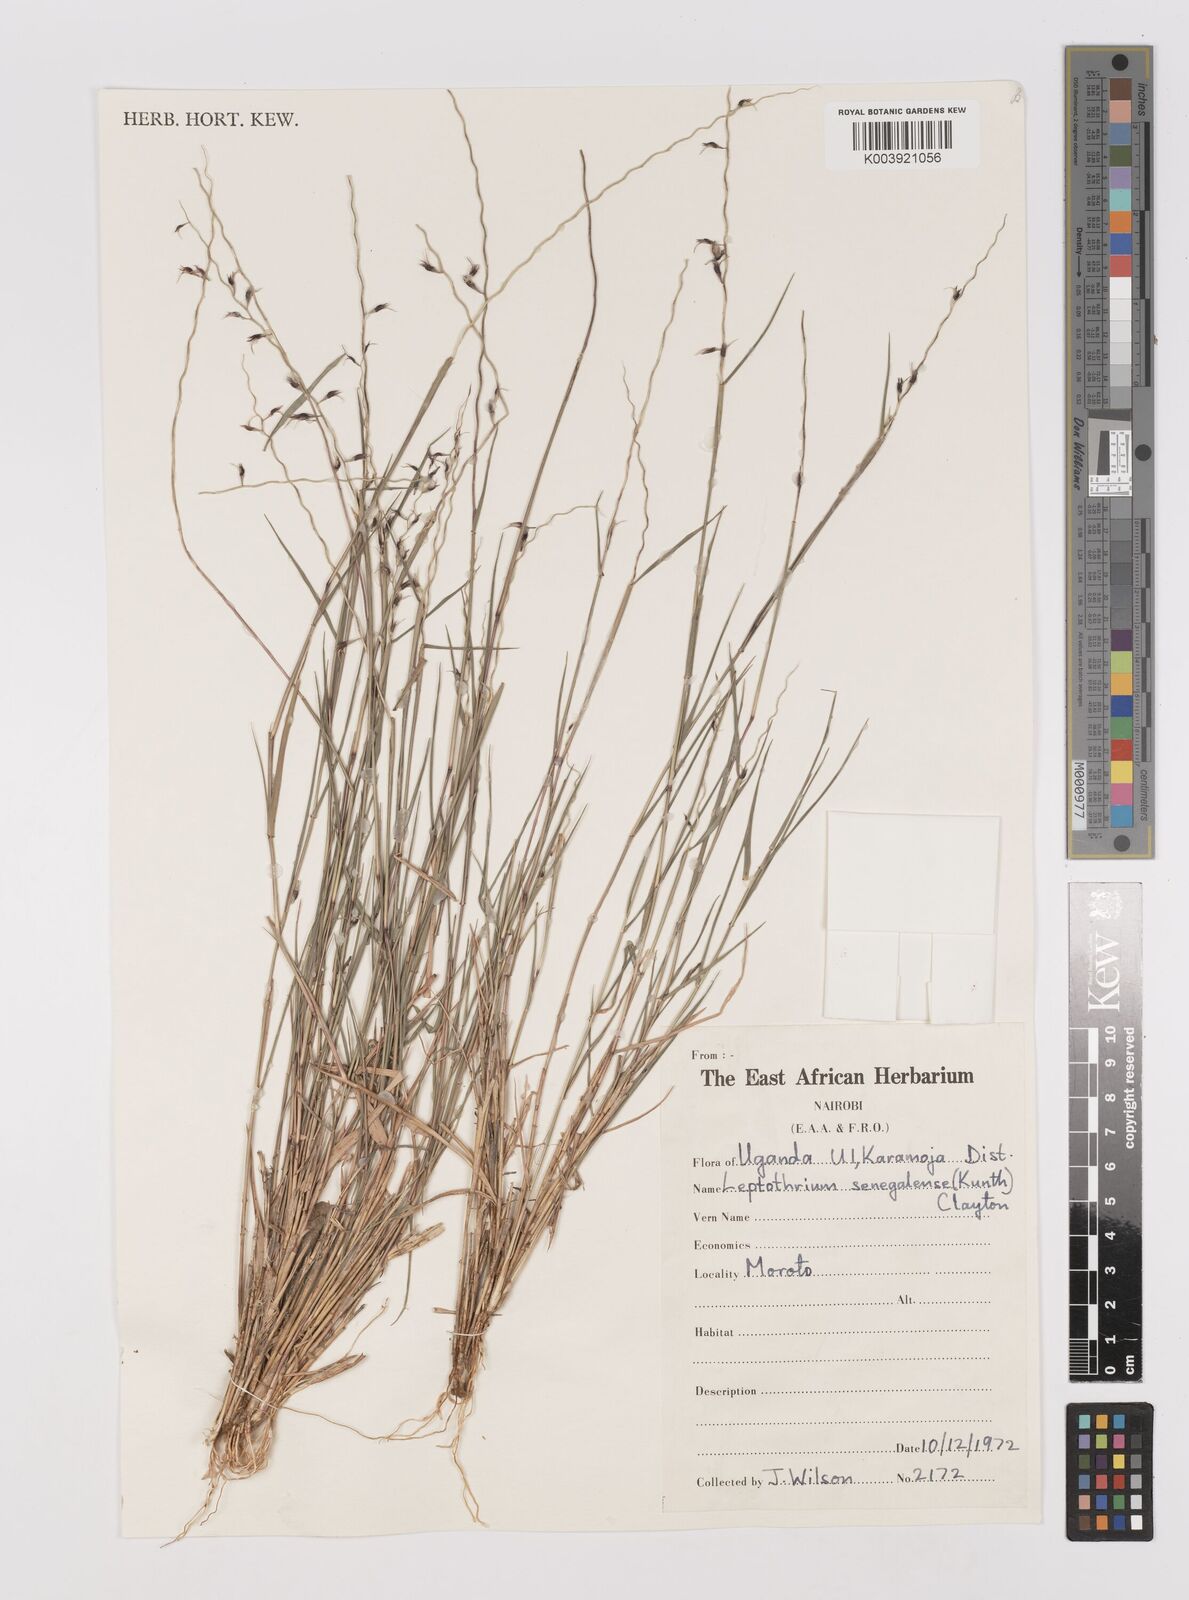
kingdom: Plantae
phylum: Tracheophyta
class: Liliopsida
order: Poales
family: Poaceae
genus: Leptothrium
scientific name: Leptothrium senegalense
